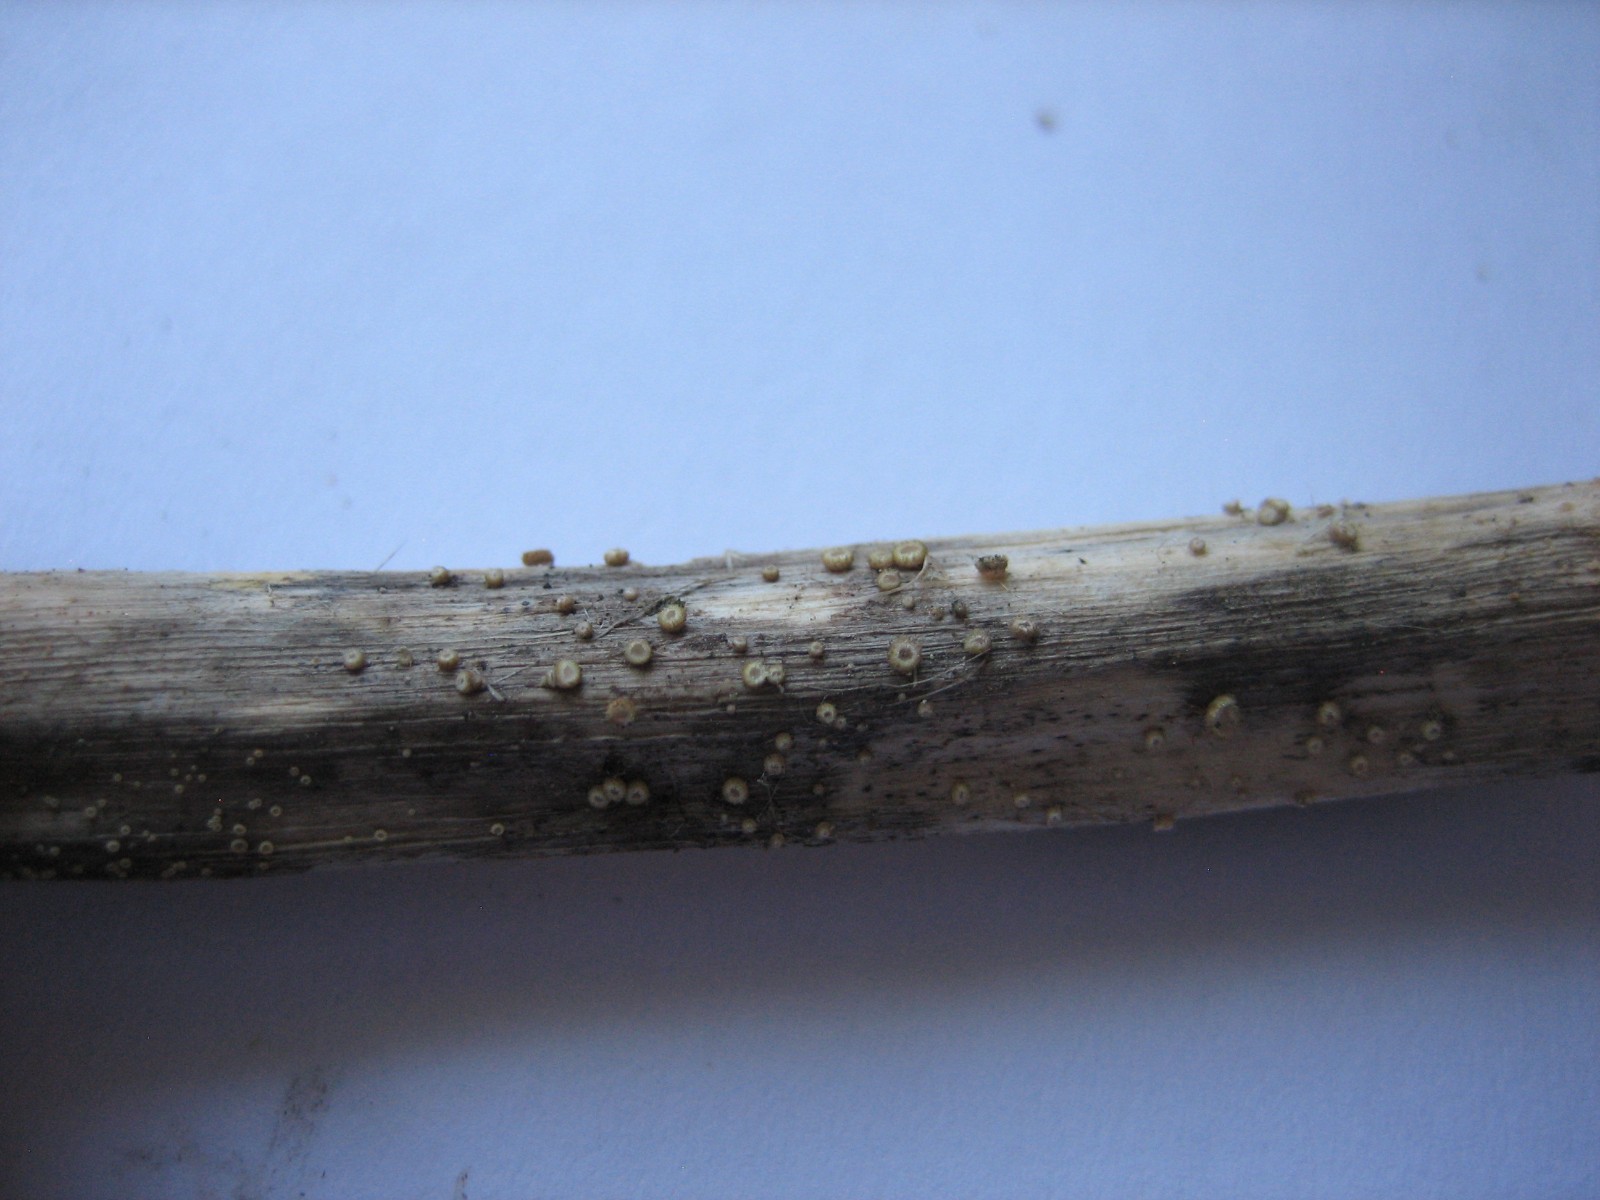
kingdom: Fungi
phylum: Ascomycota
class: Leotiomycetes
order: Helotiales
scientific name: Helotiales
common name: stilkskiveordenen
